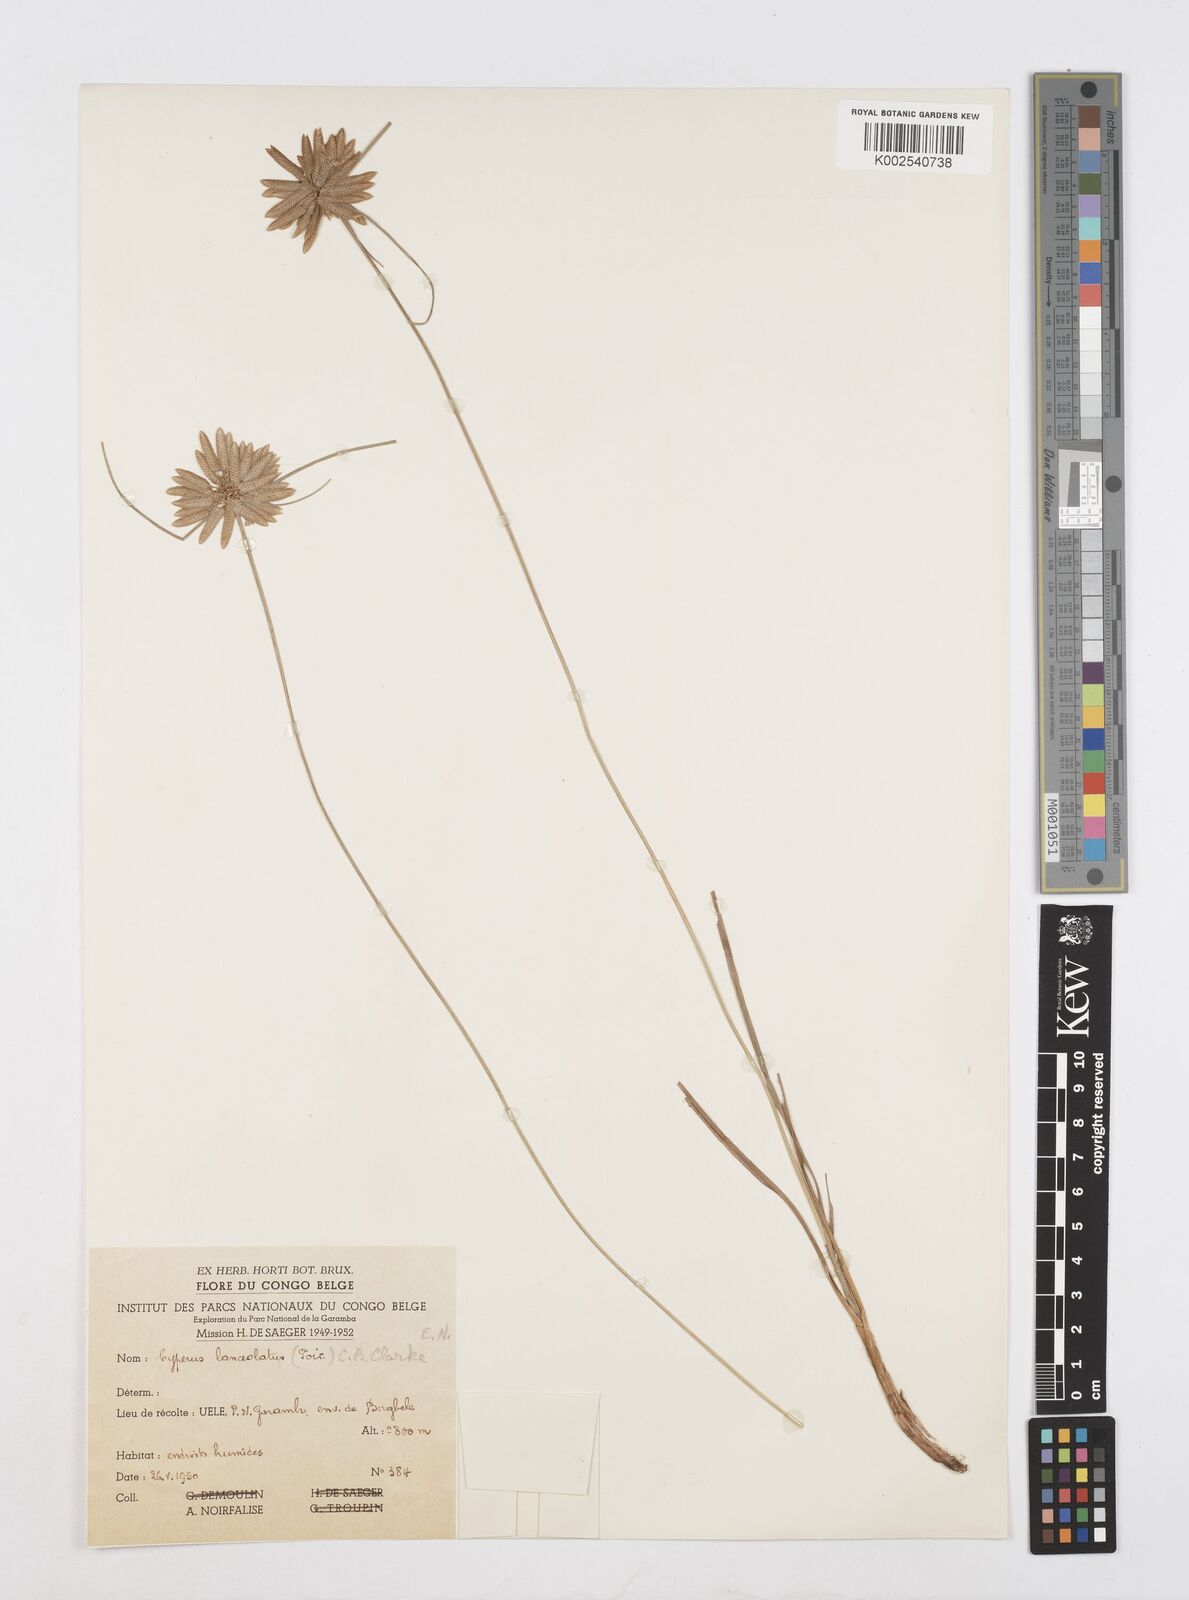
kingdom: Plantae
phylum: Tracheophyta
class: Liliopsida
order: Poales
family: Cyperaceae
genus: Cyperus
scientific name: Cyperus
